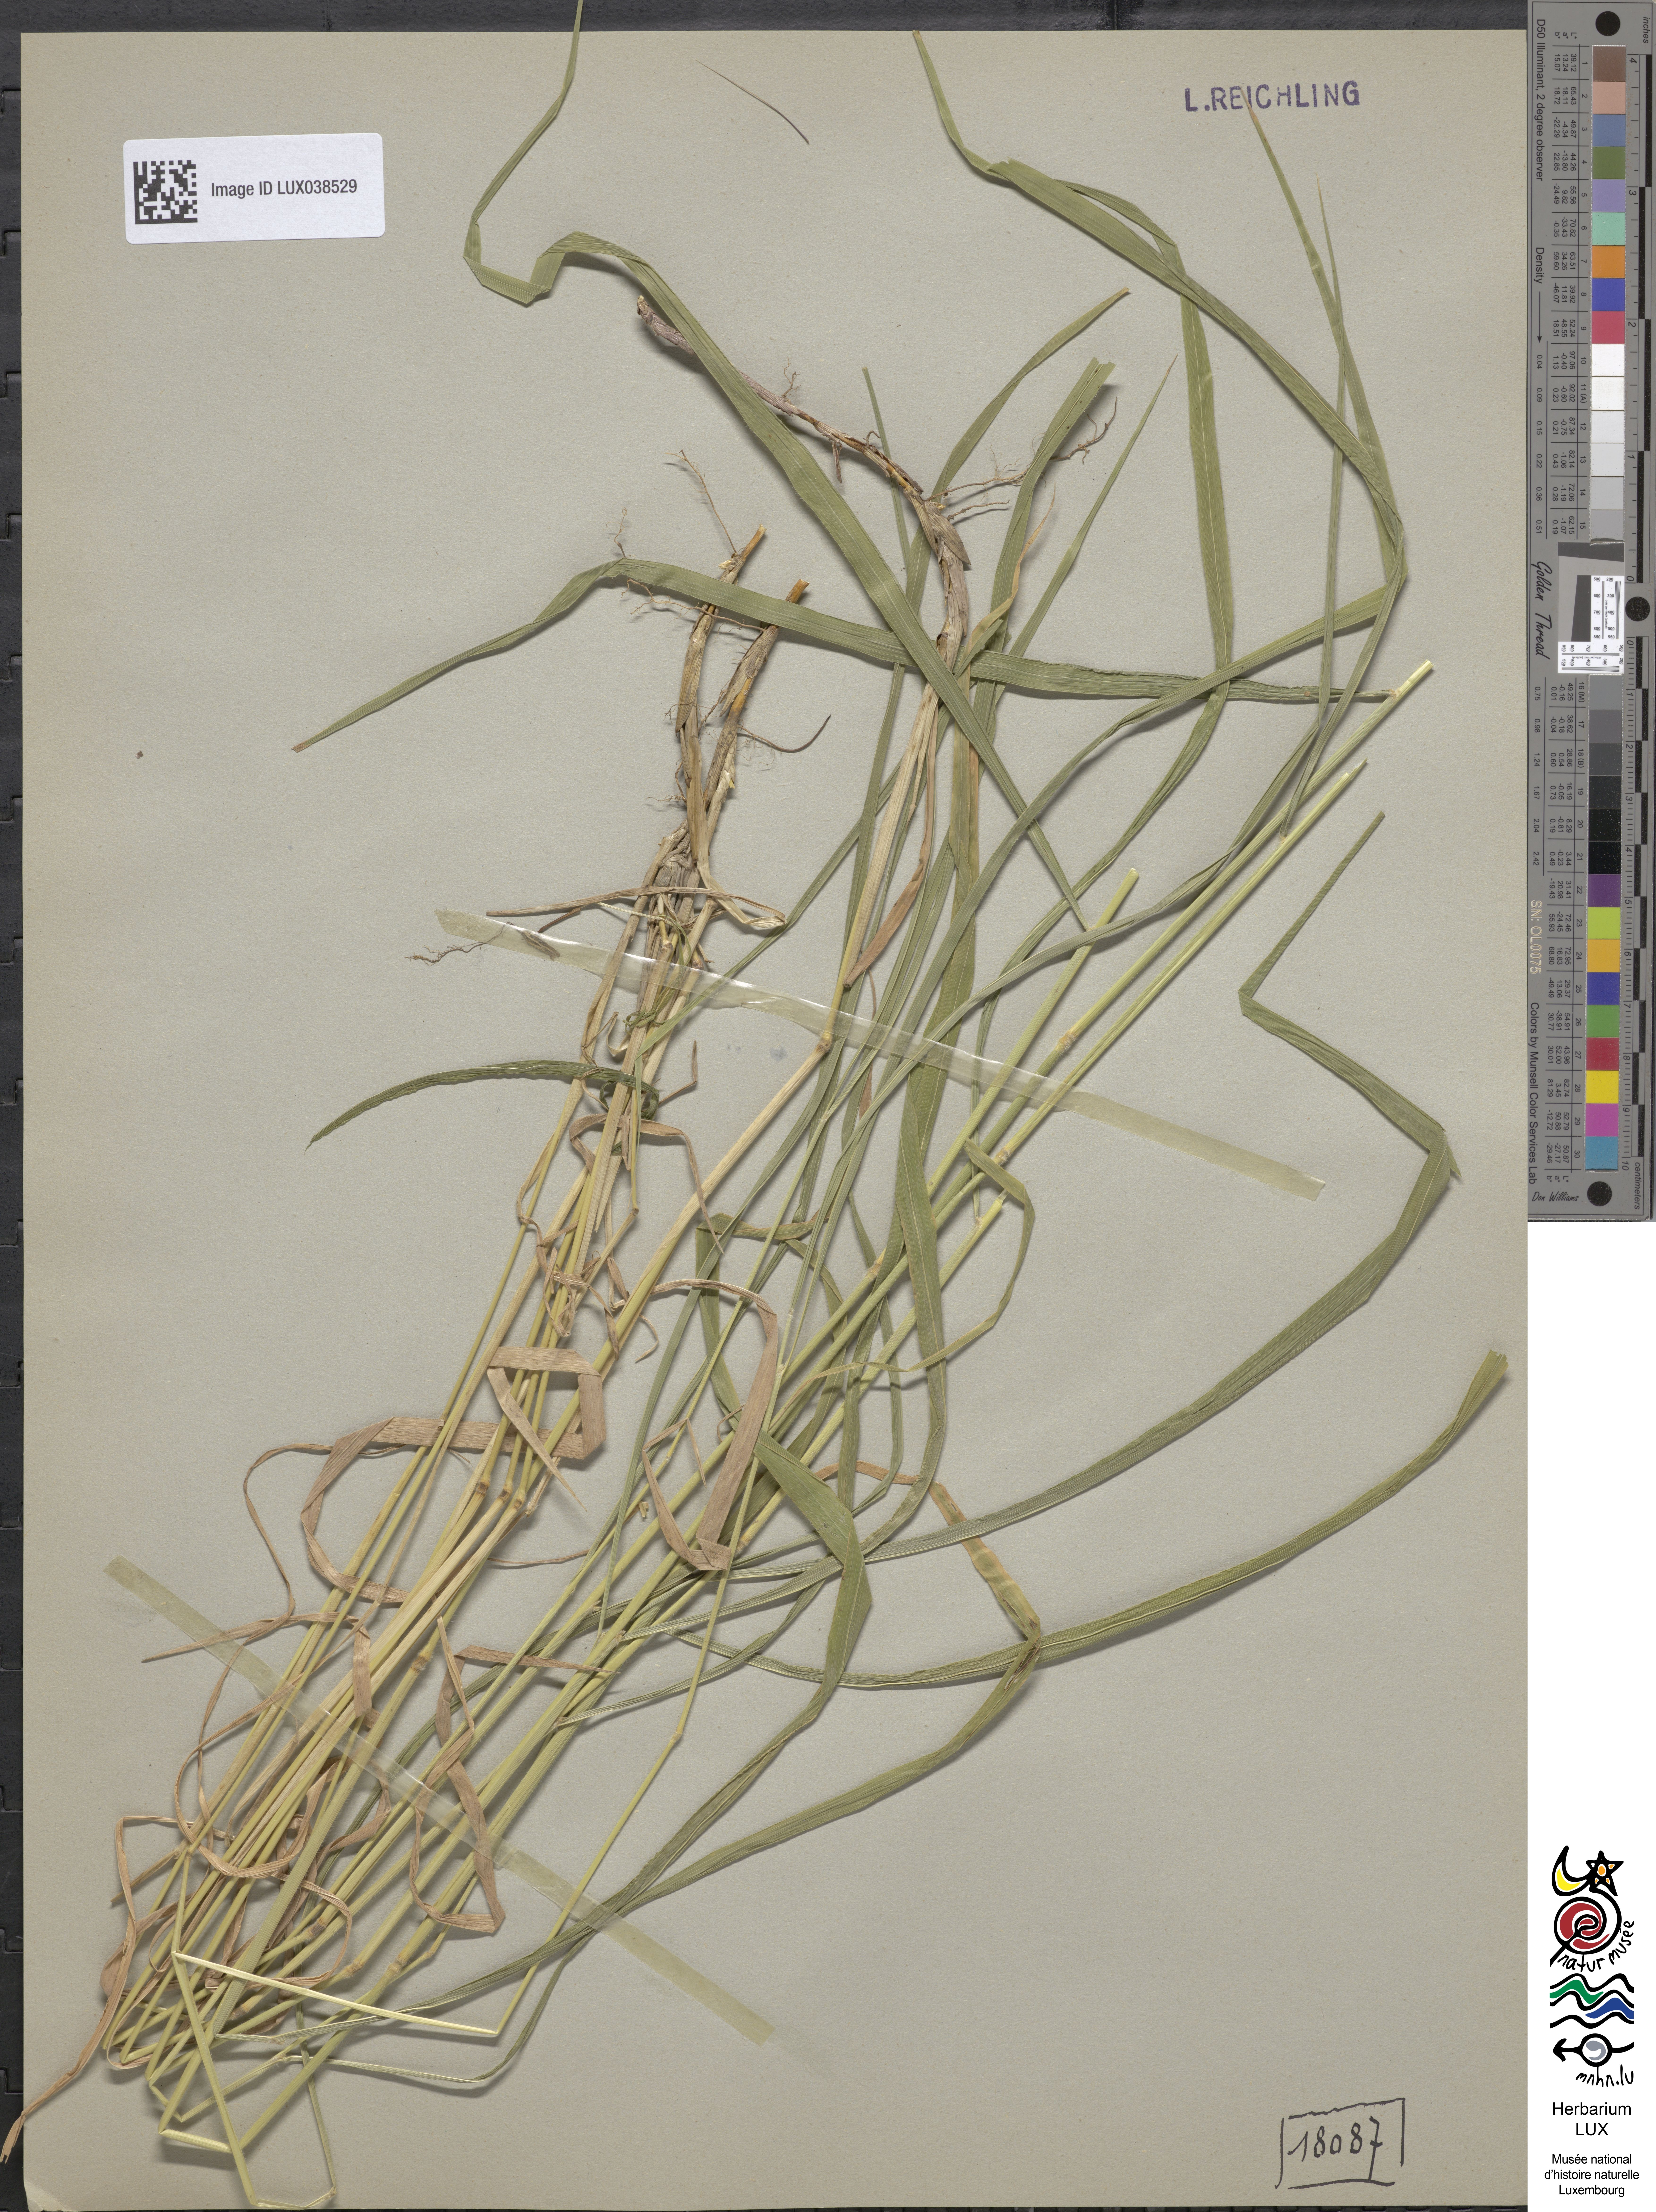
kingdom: Plantae
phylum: Tracheophyta
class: Liliopsida
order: Poales
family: Poaceae
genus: Brachypodium
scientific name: Brachypodium pinnatum
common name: Tor grass
